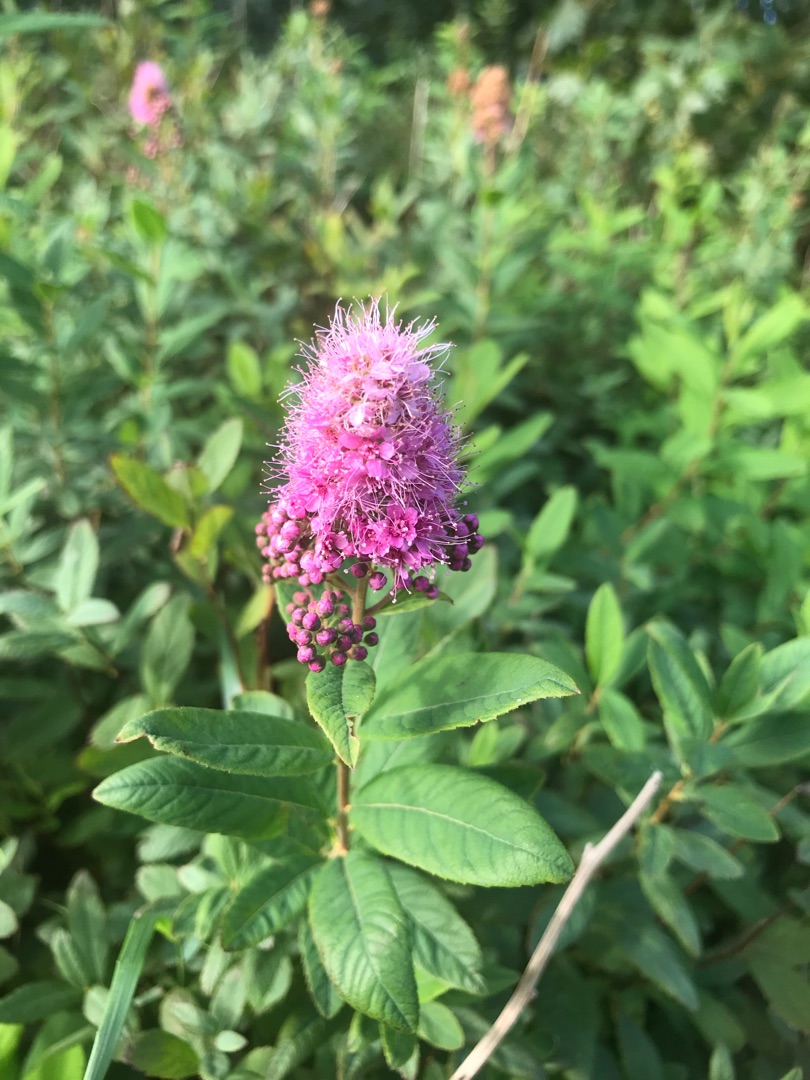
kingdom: Plantae
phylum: Tracheophyta
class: Magnoliopsida
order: Rosales
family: Rosaceae
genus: Spiraea
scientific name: Spiraea
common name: Spiræaslægten
